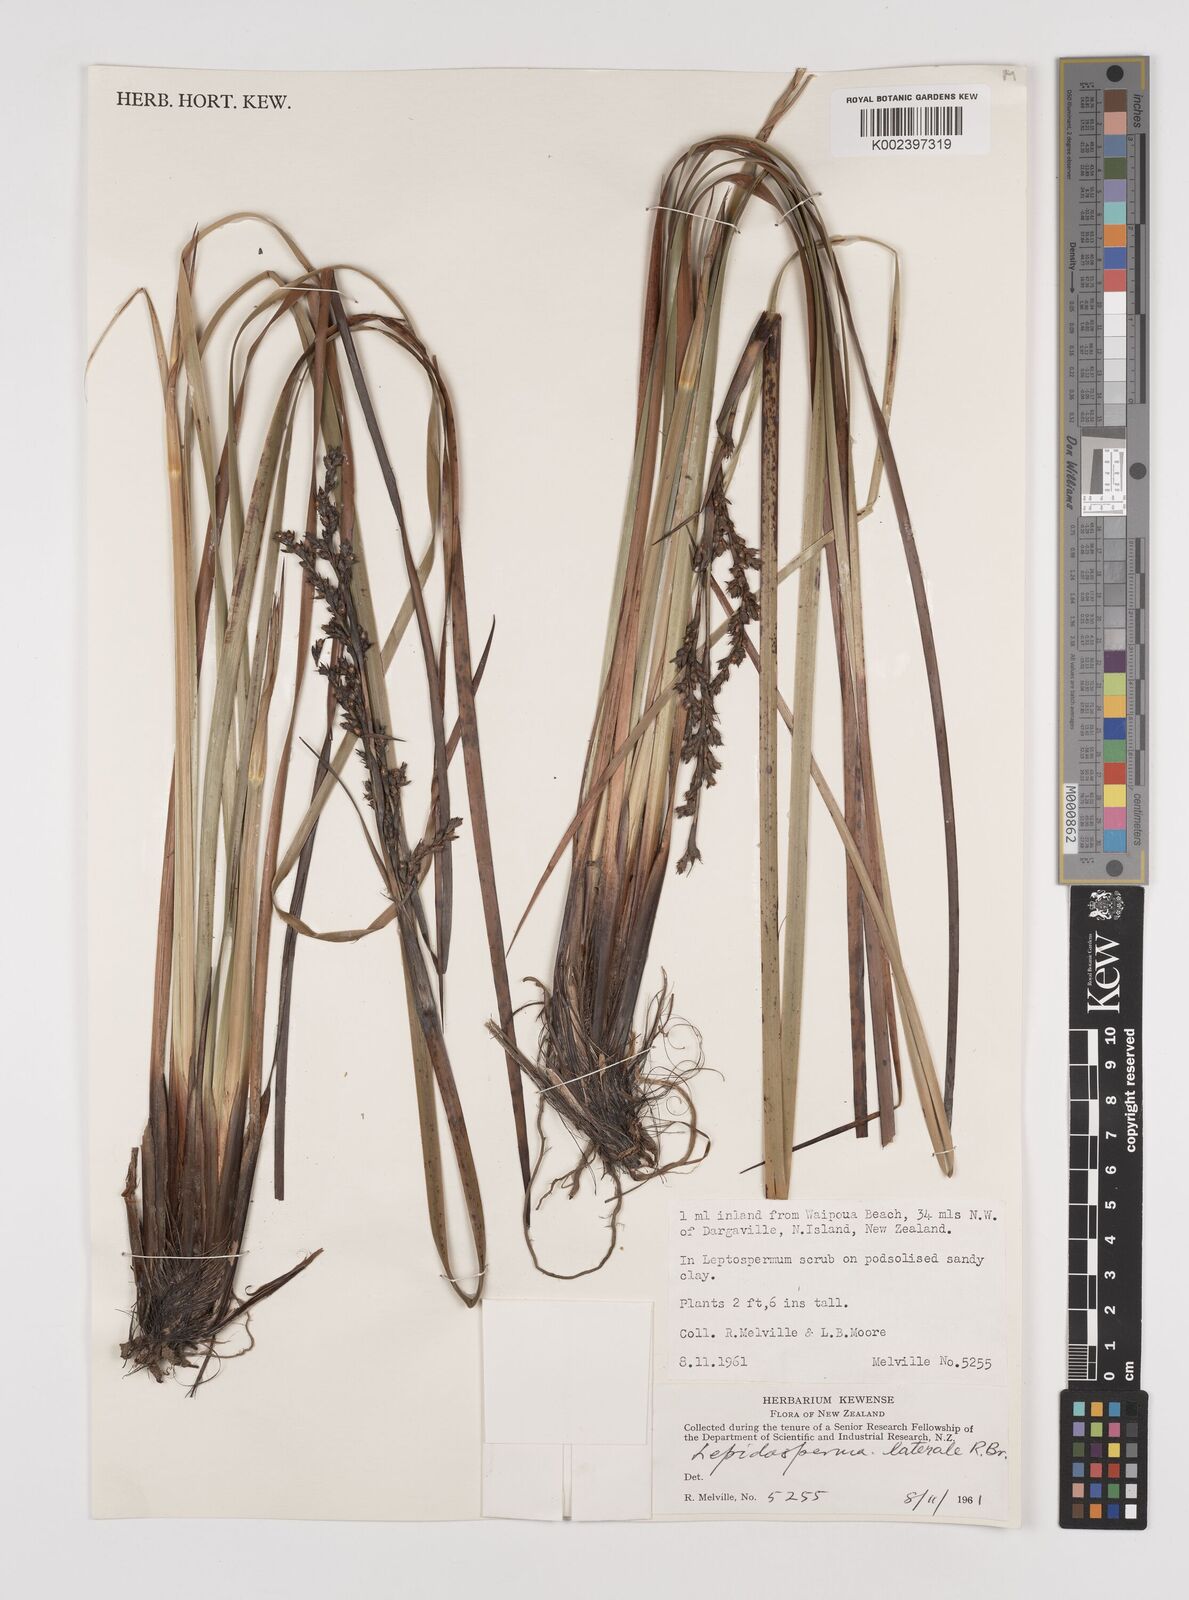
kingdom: Plantae
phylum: Tracheophyta
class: Liliopsida
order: Poales
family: Cyperaceae
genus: Lepidosperma
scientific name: Lepidosperma laterale
